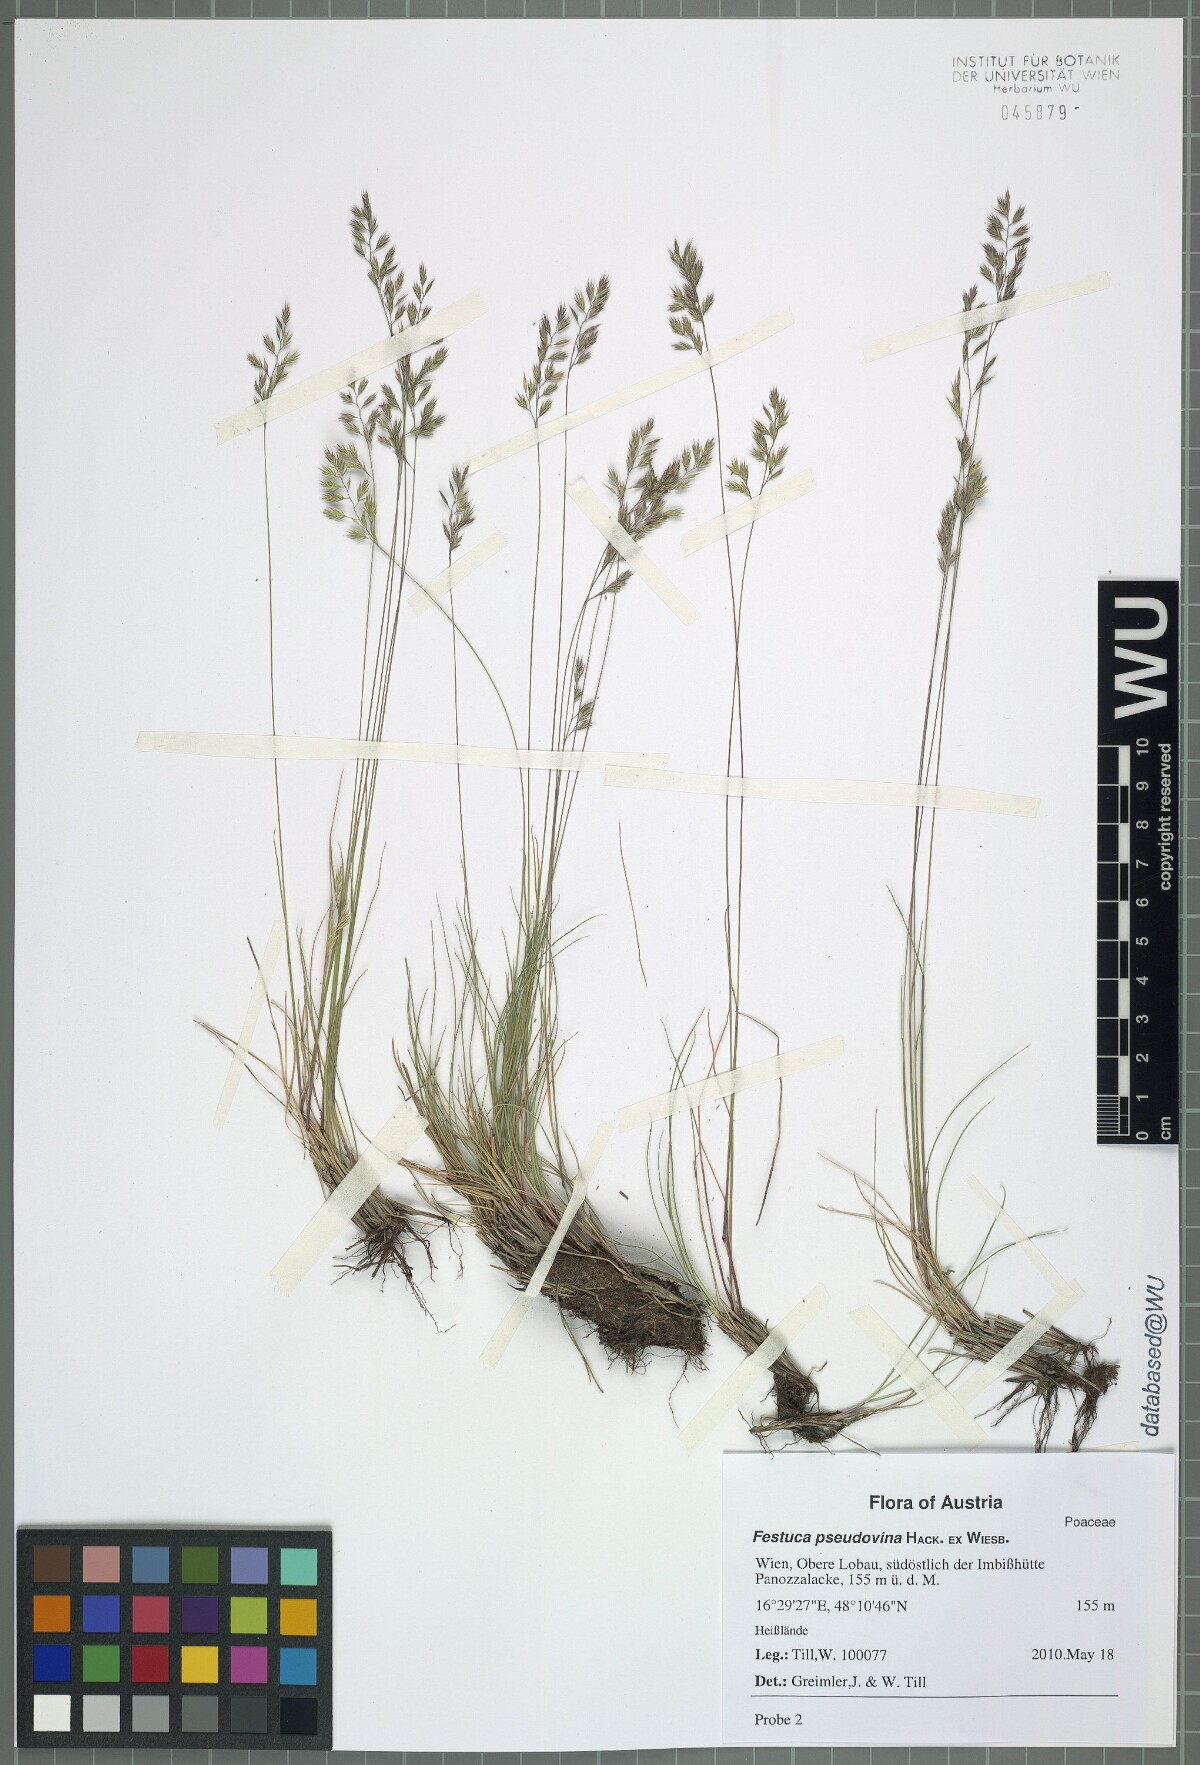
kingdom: Plantae
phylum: Tracheophyta
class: Liliopsida
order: Poales
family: Poaceae
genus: Festuca
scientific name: Festuca pulchra
